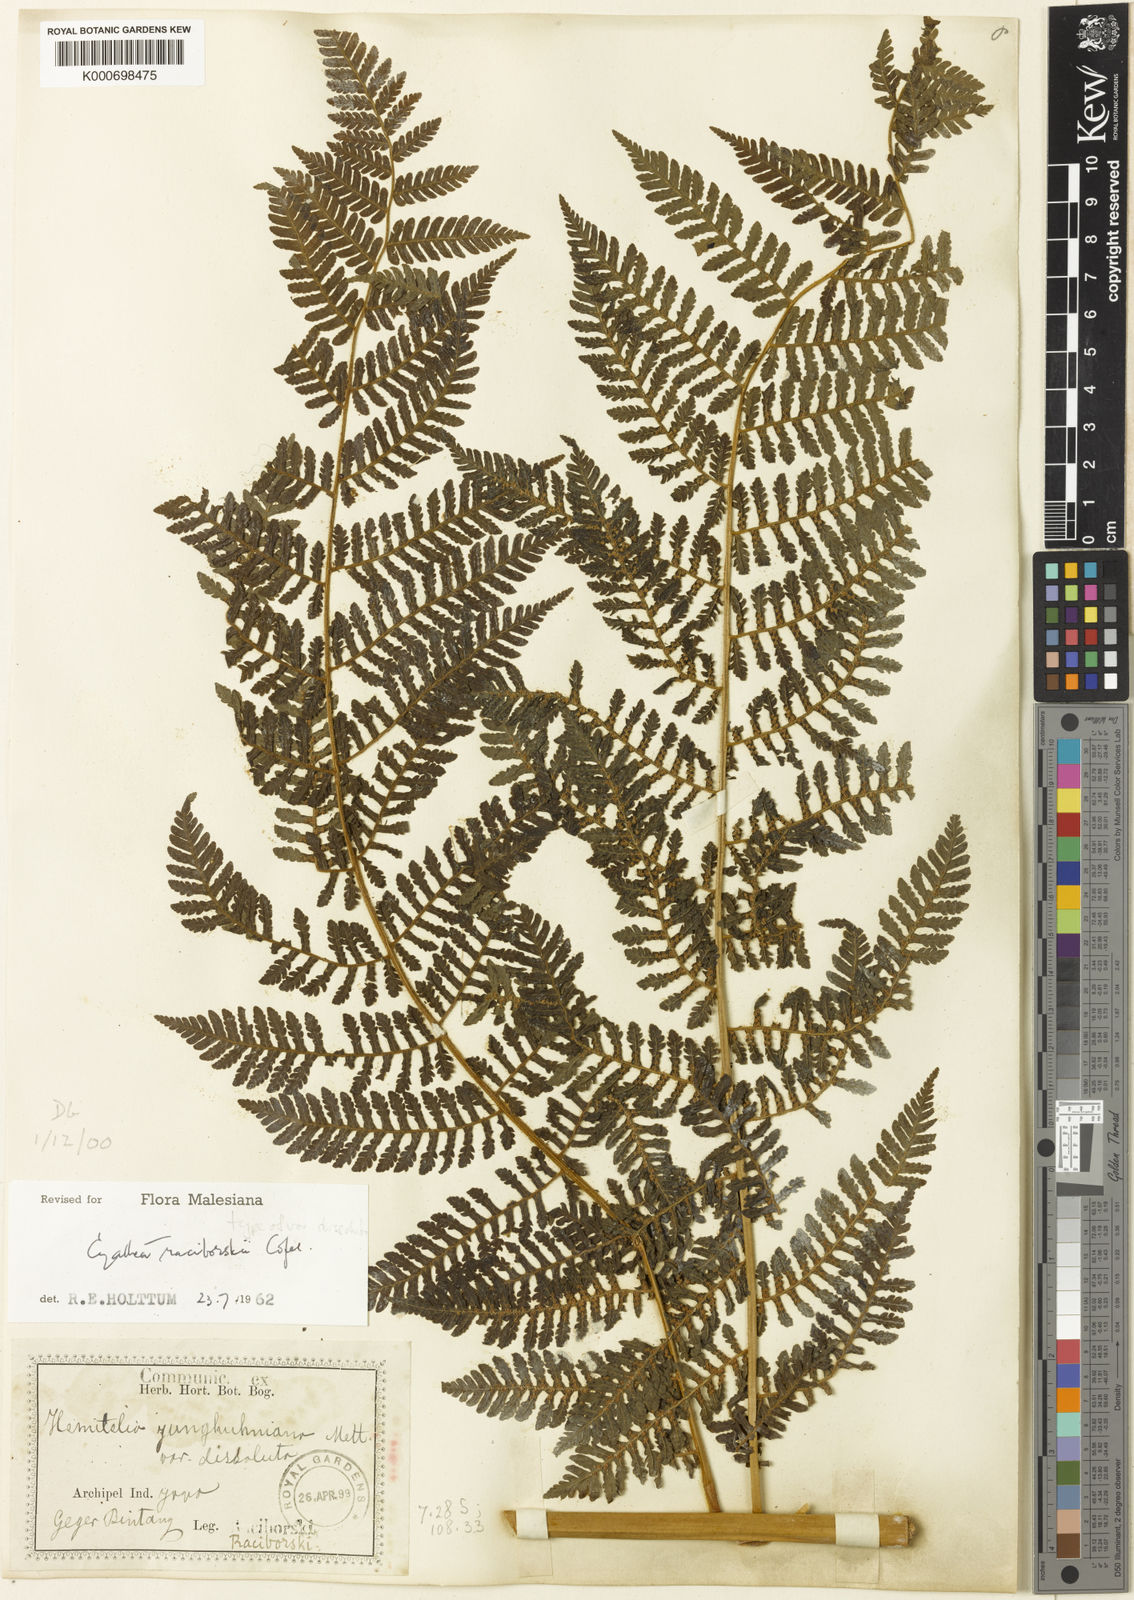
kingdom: Plantae
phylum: Tracheophyta
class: Polypodiopsida
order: Cyatheales
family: Cyatheaceae
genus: Alsophila
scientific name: Alsophila crenulata
